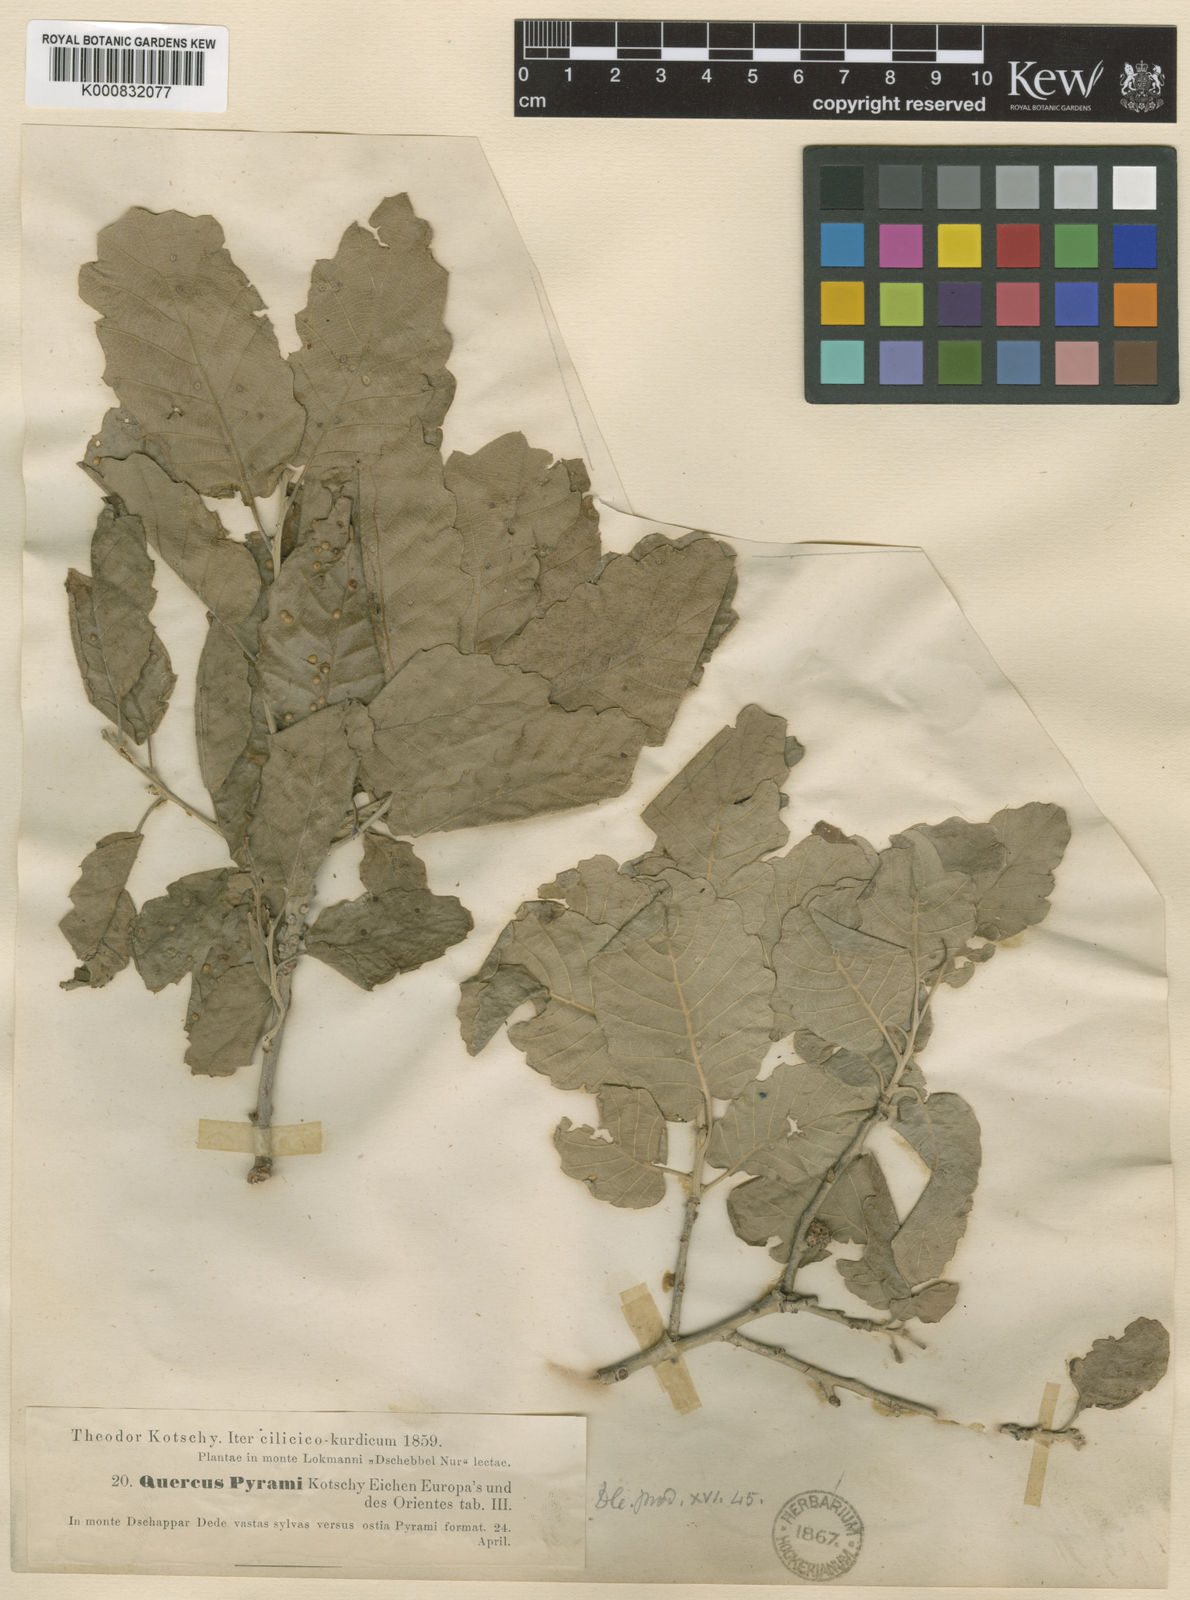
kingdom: Plantae
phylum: Tracheophyta
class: Magnoliopsida
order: Fagales
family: Fagaceae
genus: Quercus
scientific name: Quercus cerris
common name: Turkey oak
